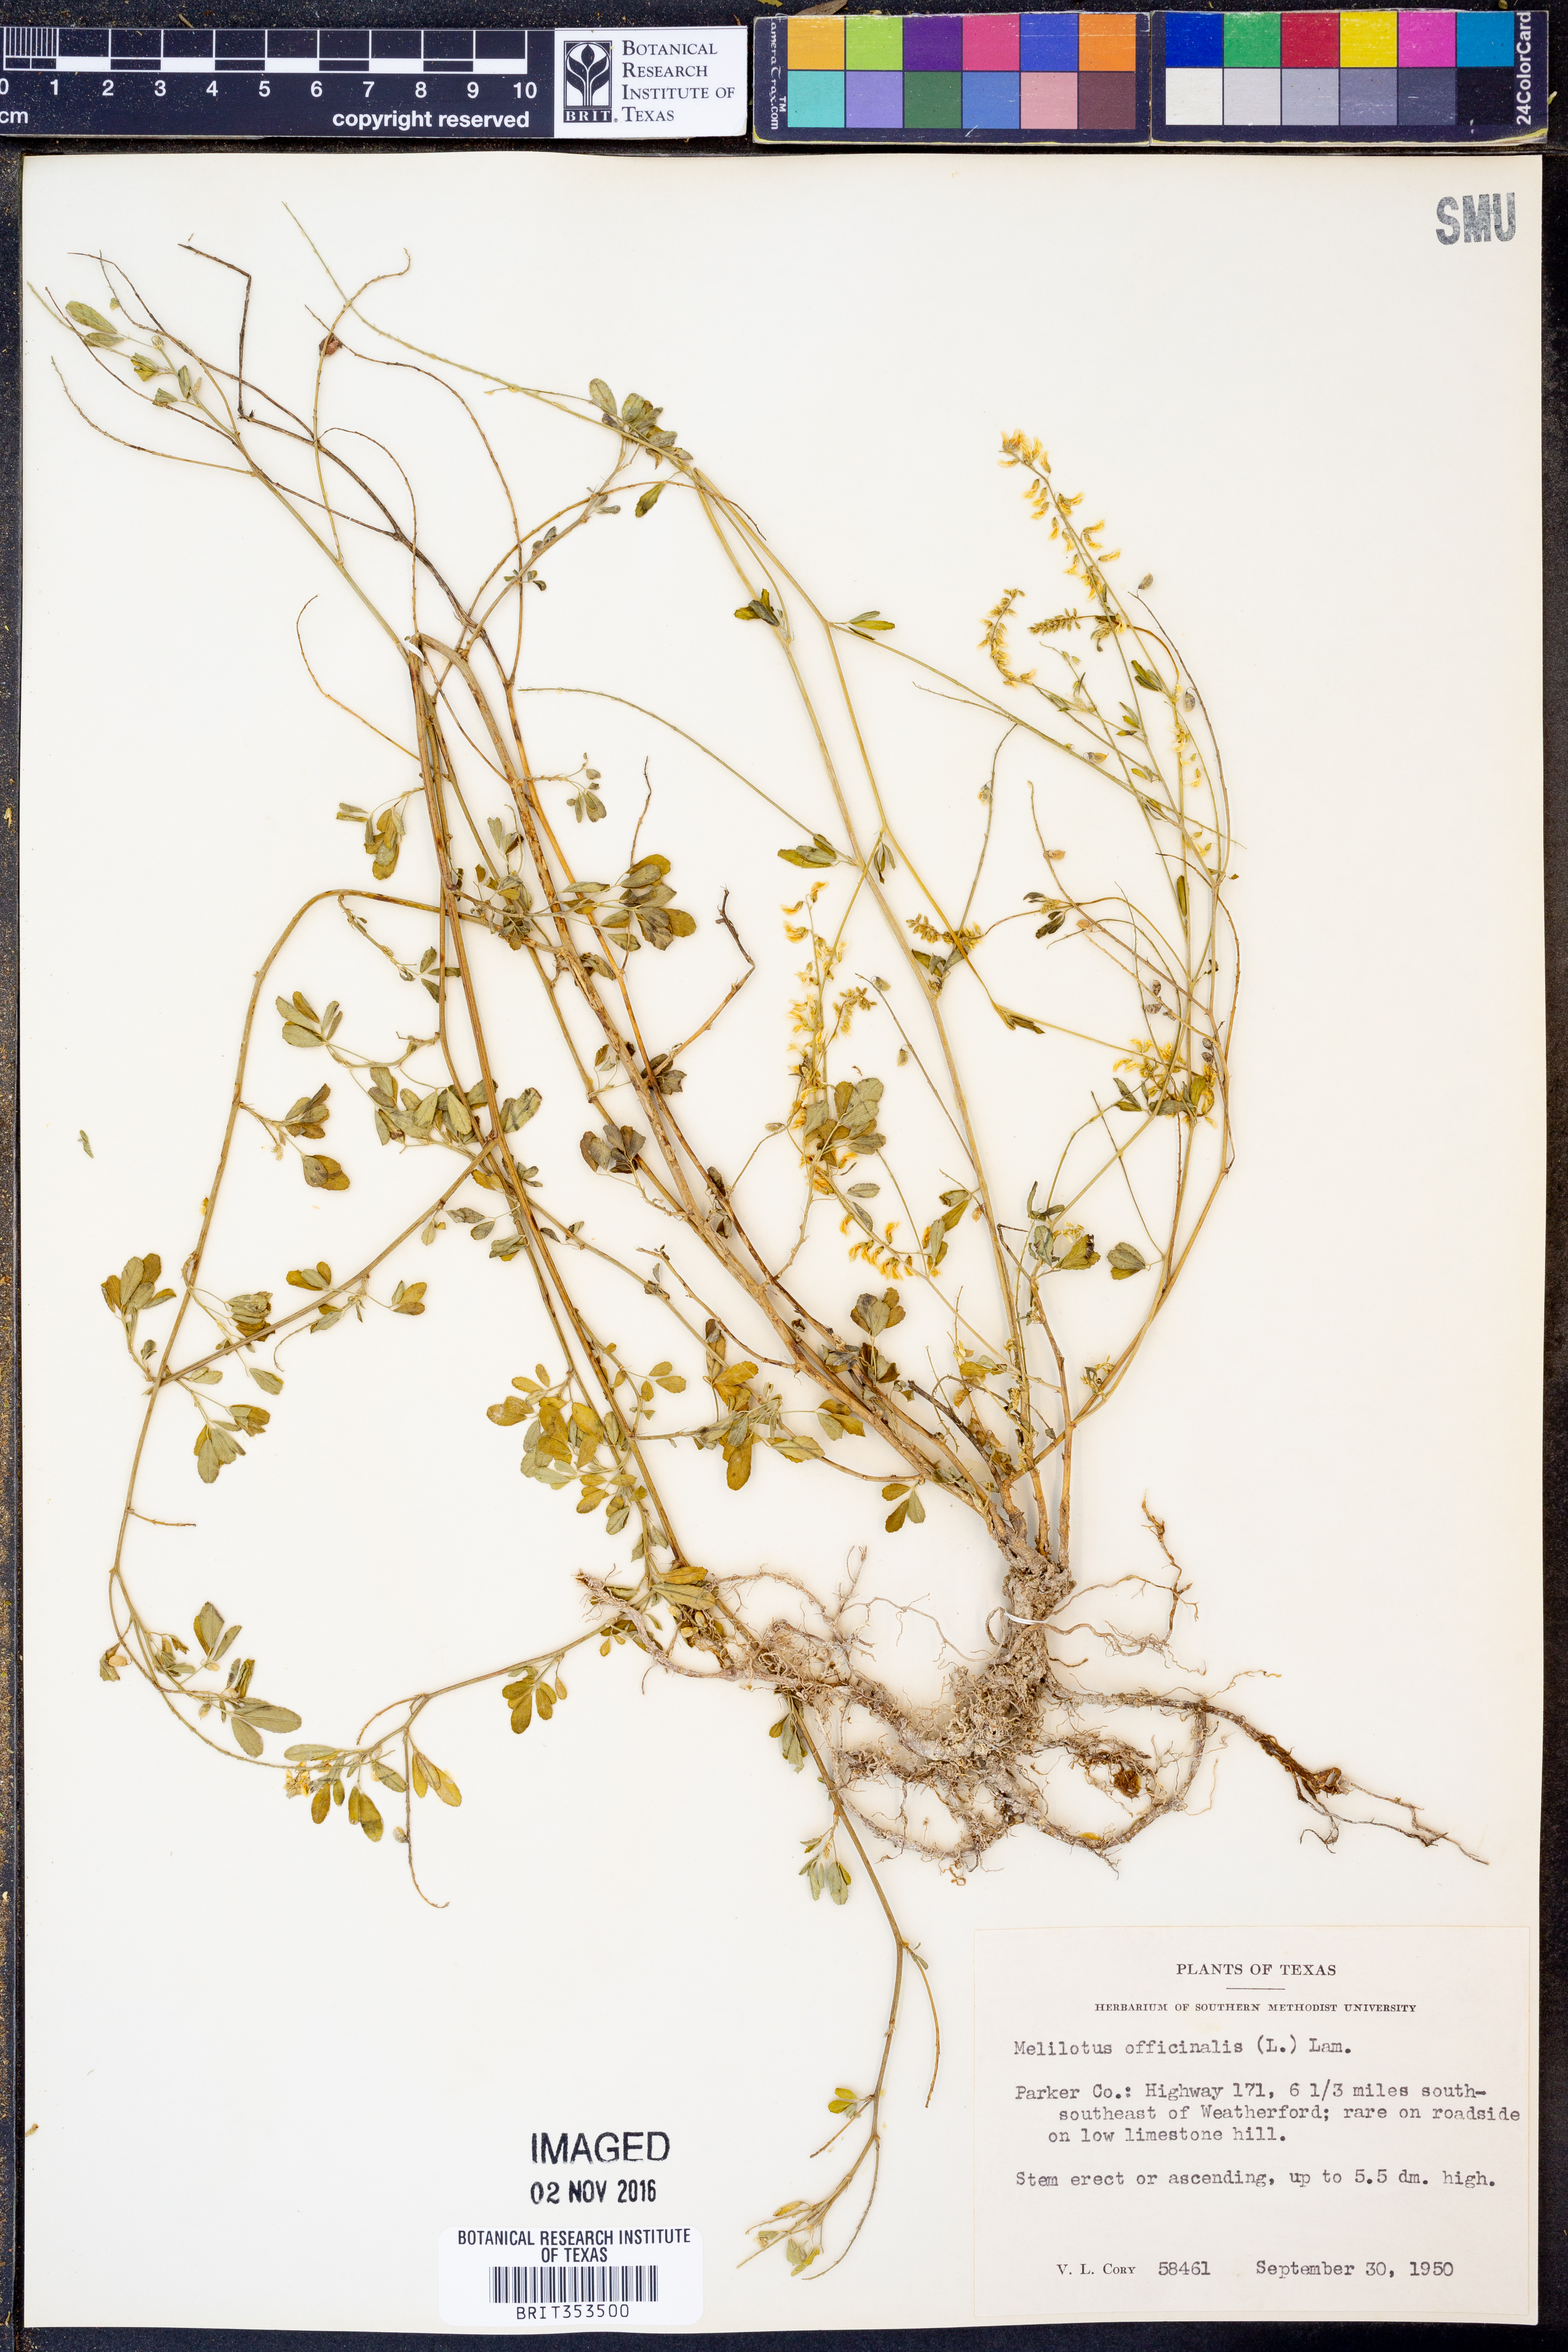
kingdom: Plantae
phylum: Tracheophyta
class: Magnoliopsida
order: Fabales
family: Fabaceae
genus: Melilotus
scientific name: Melilotus officinalis
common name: Sweetclover
